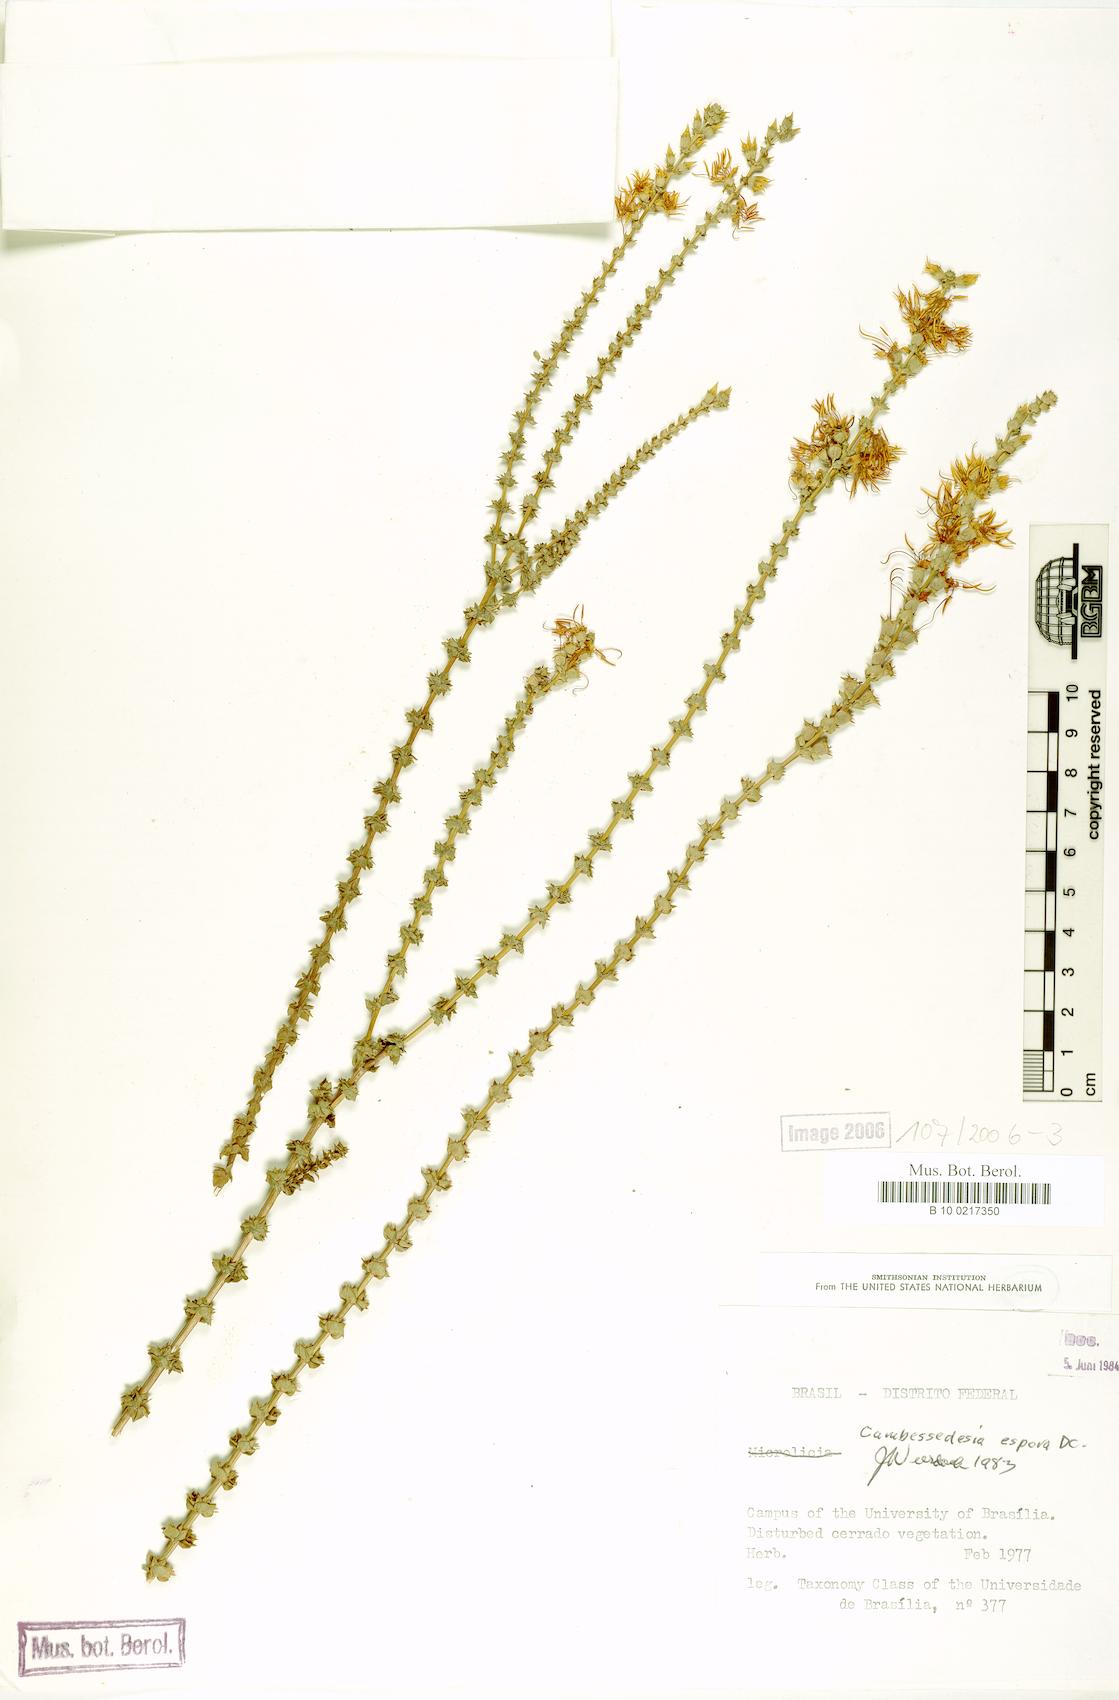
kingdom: Plantae
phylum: Tracheophyta
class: Magnoliopsida
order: Myrtales
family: Melastomataceae
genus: Cambessedesia
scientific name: Cambessedesia espora
